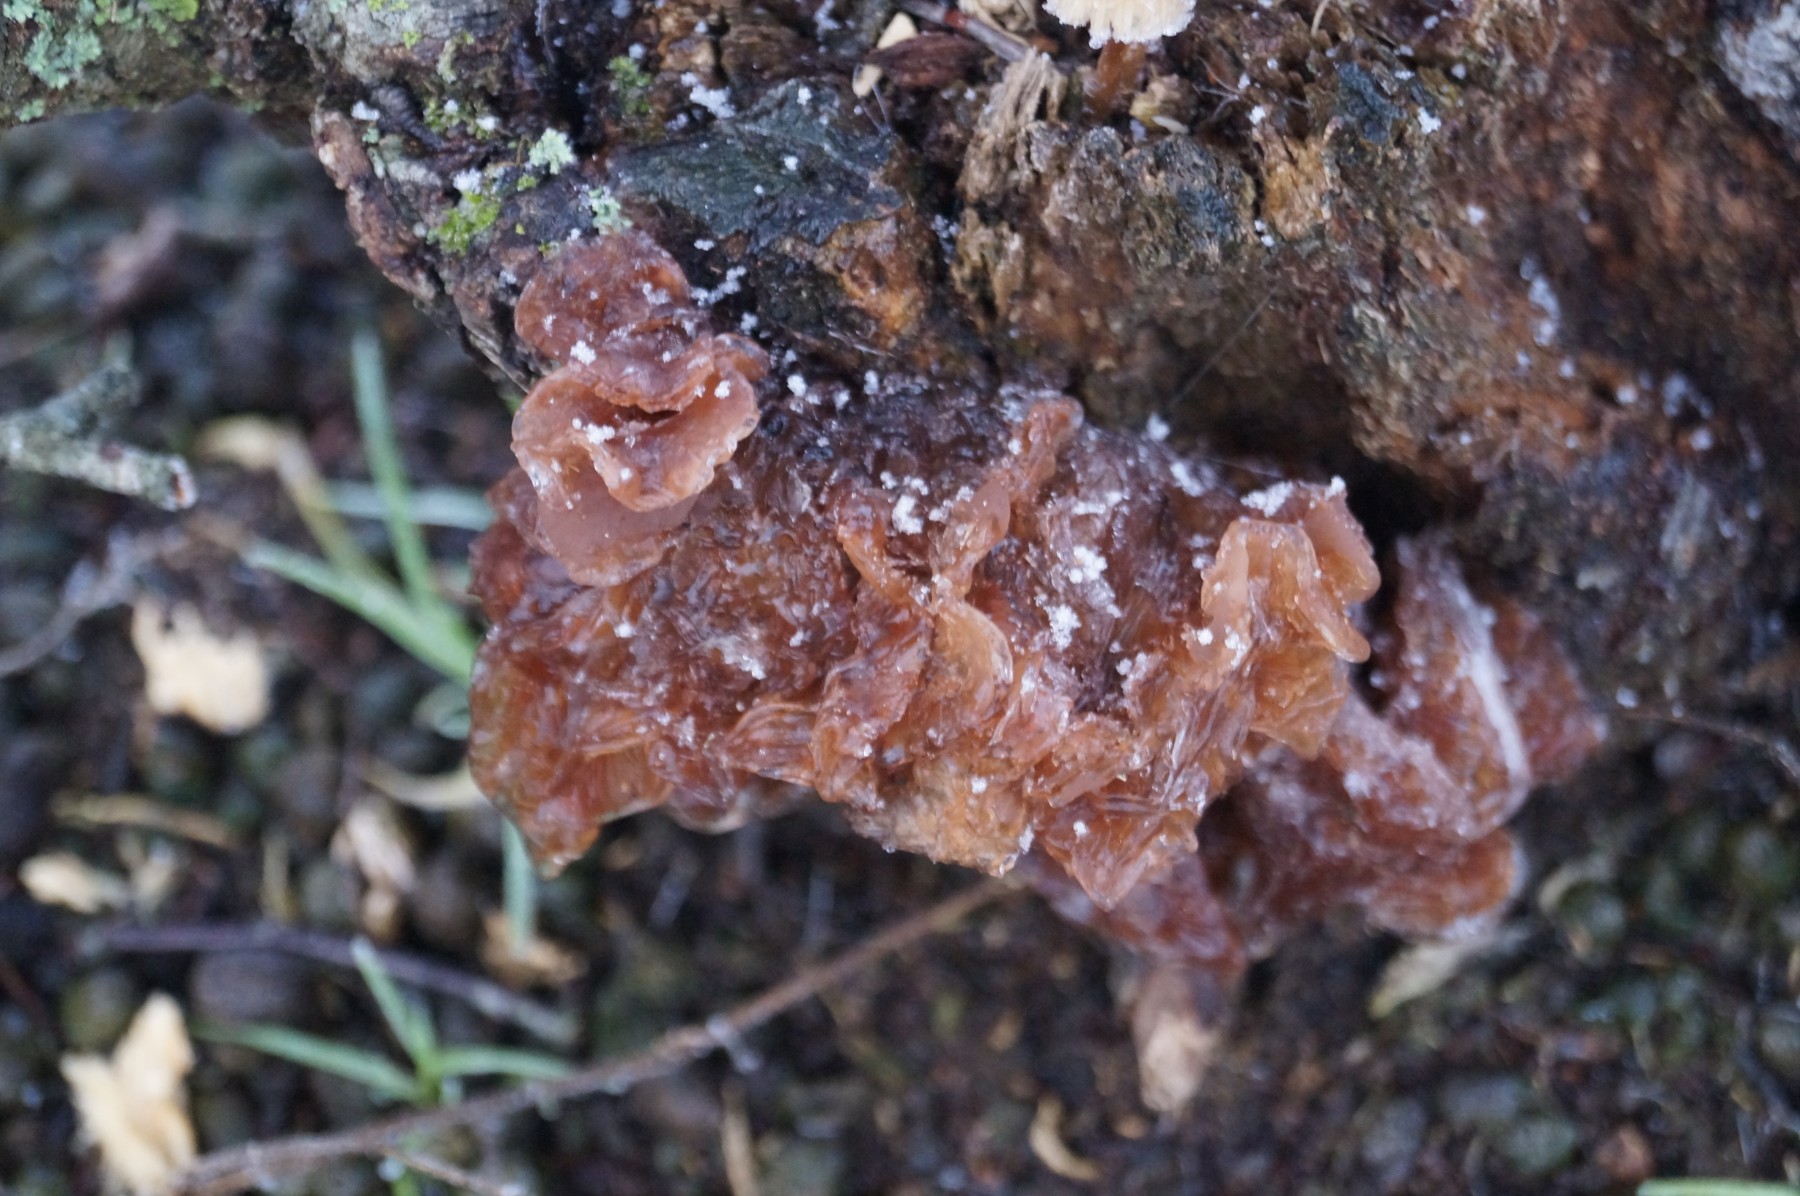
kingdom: Fungi
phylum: Basidiomycota
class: Tremellomycetes
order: Tremellales
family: Tremellaceae
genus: Phaeotremella
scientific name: Phaeotremella frondosa
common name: kæmpe-bævresvamp
